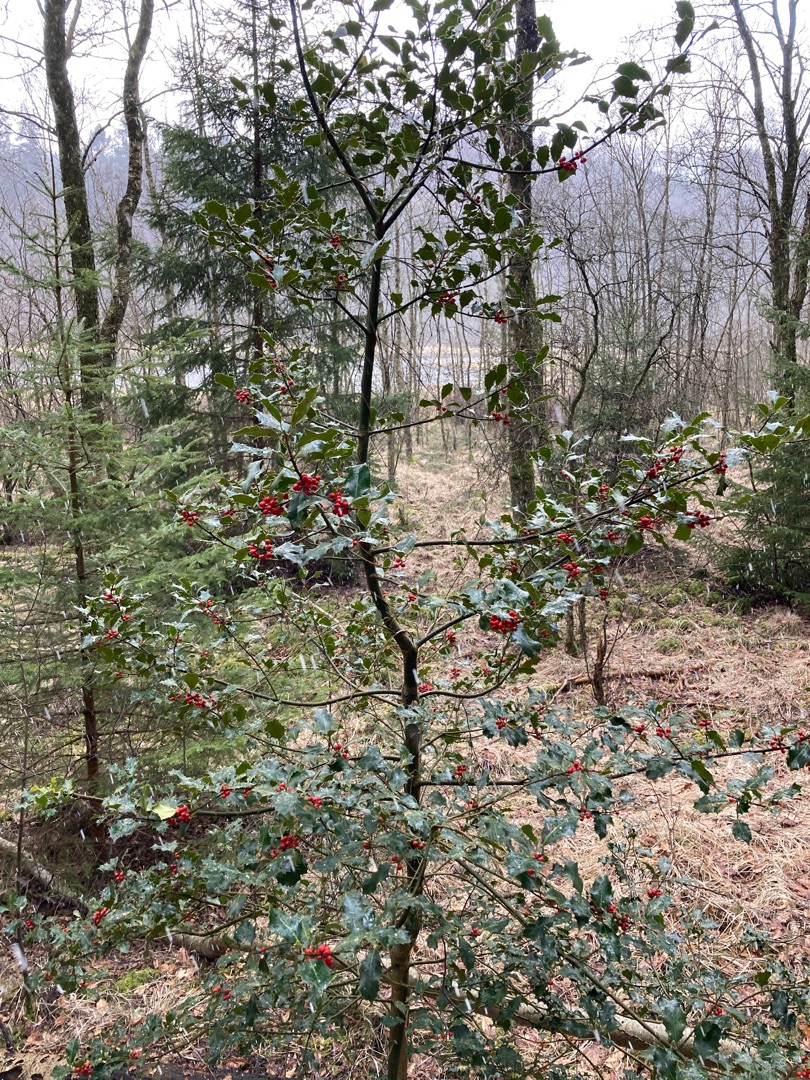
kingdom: Plantae
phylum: Tracheophyta
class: Magnoliopsida
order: Aquifoliales
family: Aquifoliaceae
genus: Ilex
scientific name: Ilex aquifolium
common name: Kristtorn
